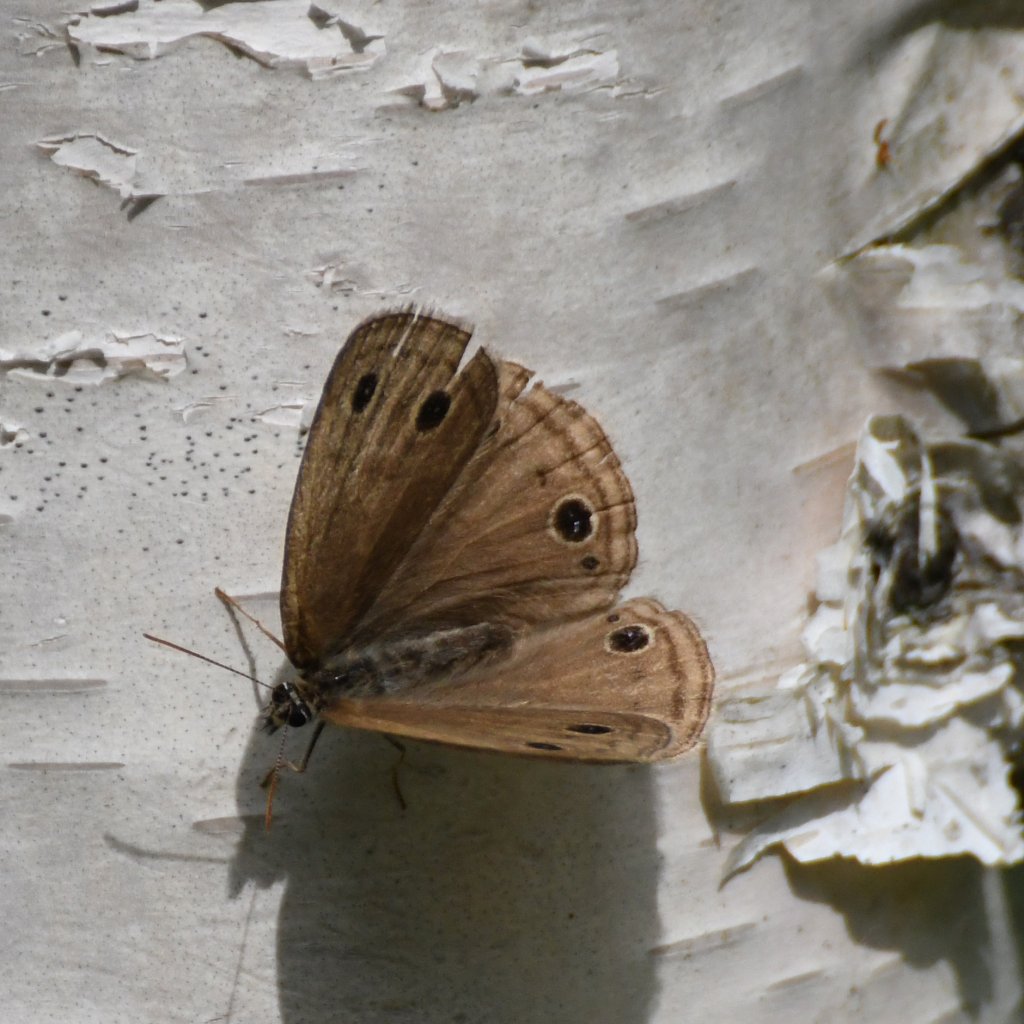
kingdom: Animalia
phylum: Arthropoda
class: Insecta
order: Lepidoptera
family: Nymphalidae
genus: Euptychia
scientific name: Euptychia cymela
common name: Little Wood Satyr
